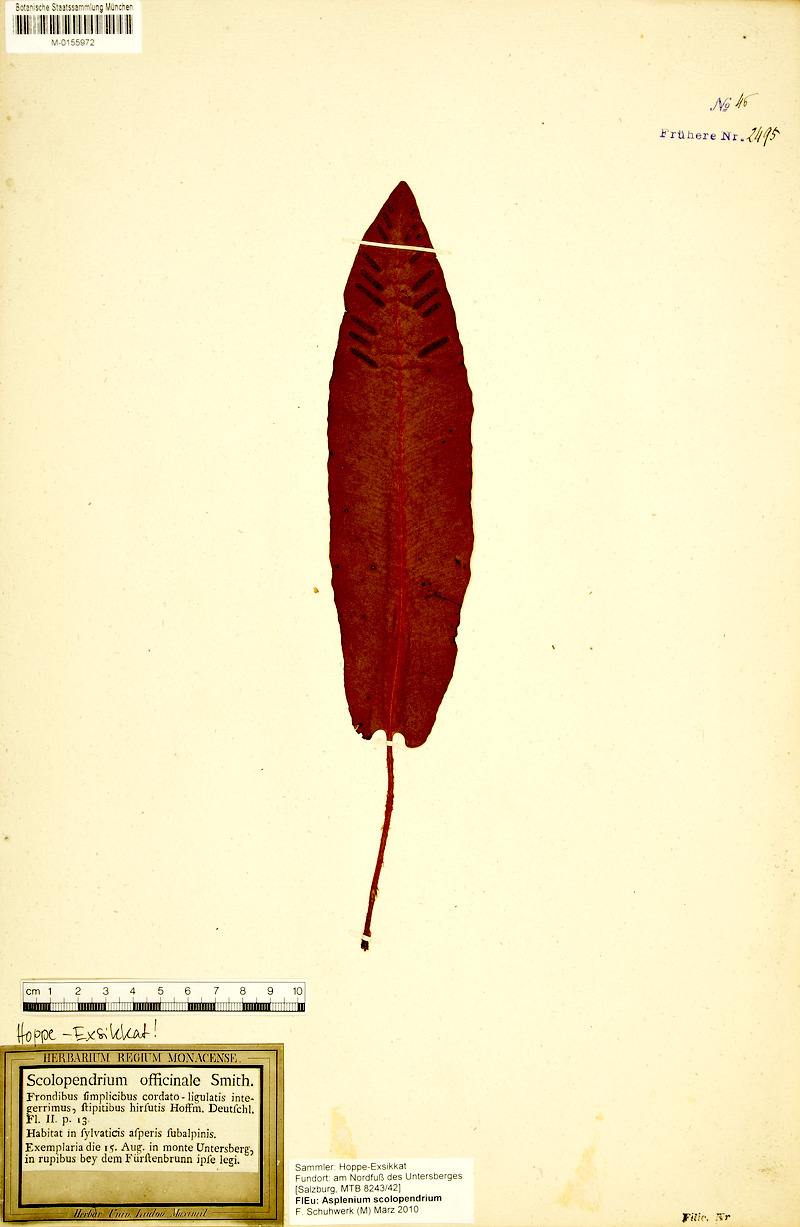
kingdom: Plantae
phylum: Tracheophyta
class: Polypodiopsida
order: Polypodiales
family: Aspleniaceae
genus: Asplenium
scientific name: Asplenium scolopendrium
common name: Hart's-tongue fern
